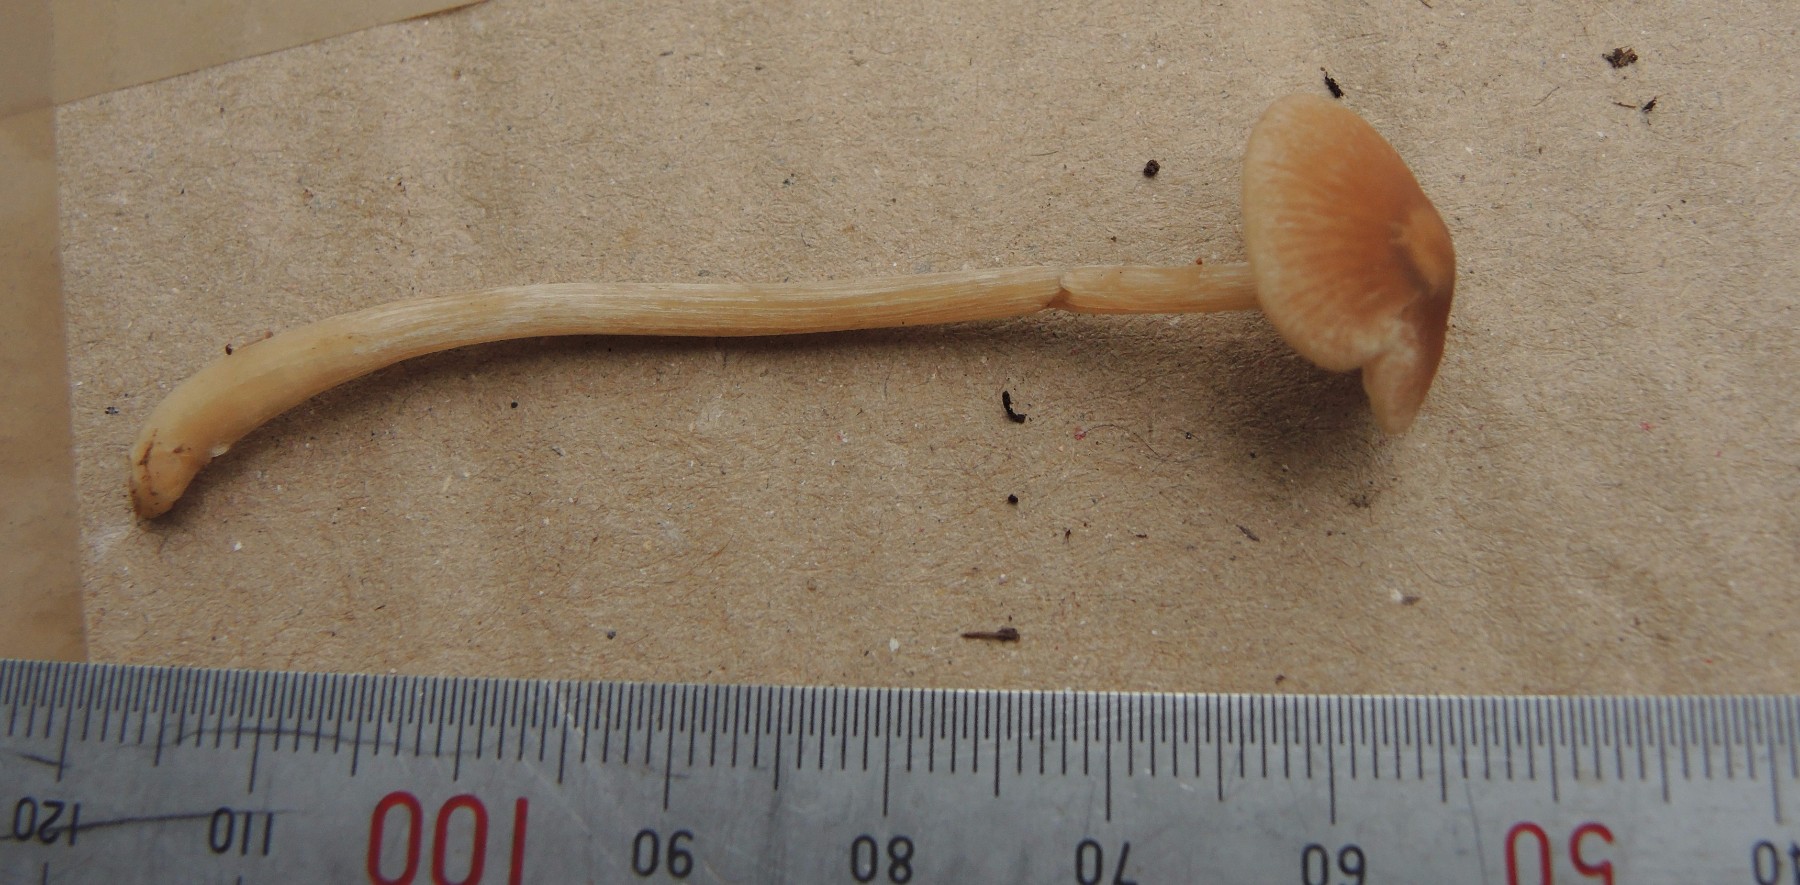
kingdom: Fungi
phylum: Basidiomycota
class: Agaricomycetes
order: Agaricales
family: Entolomataceae
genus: Entoloma
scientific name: Entoloma cetratum
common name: voks-rødblad
